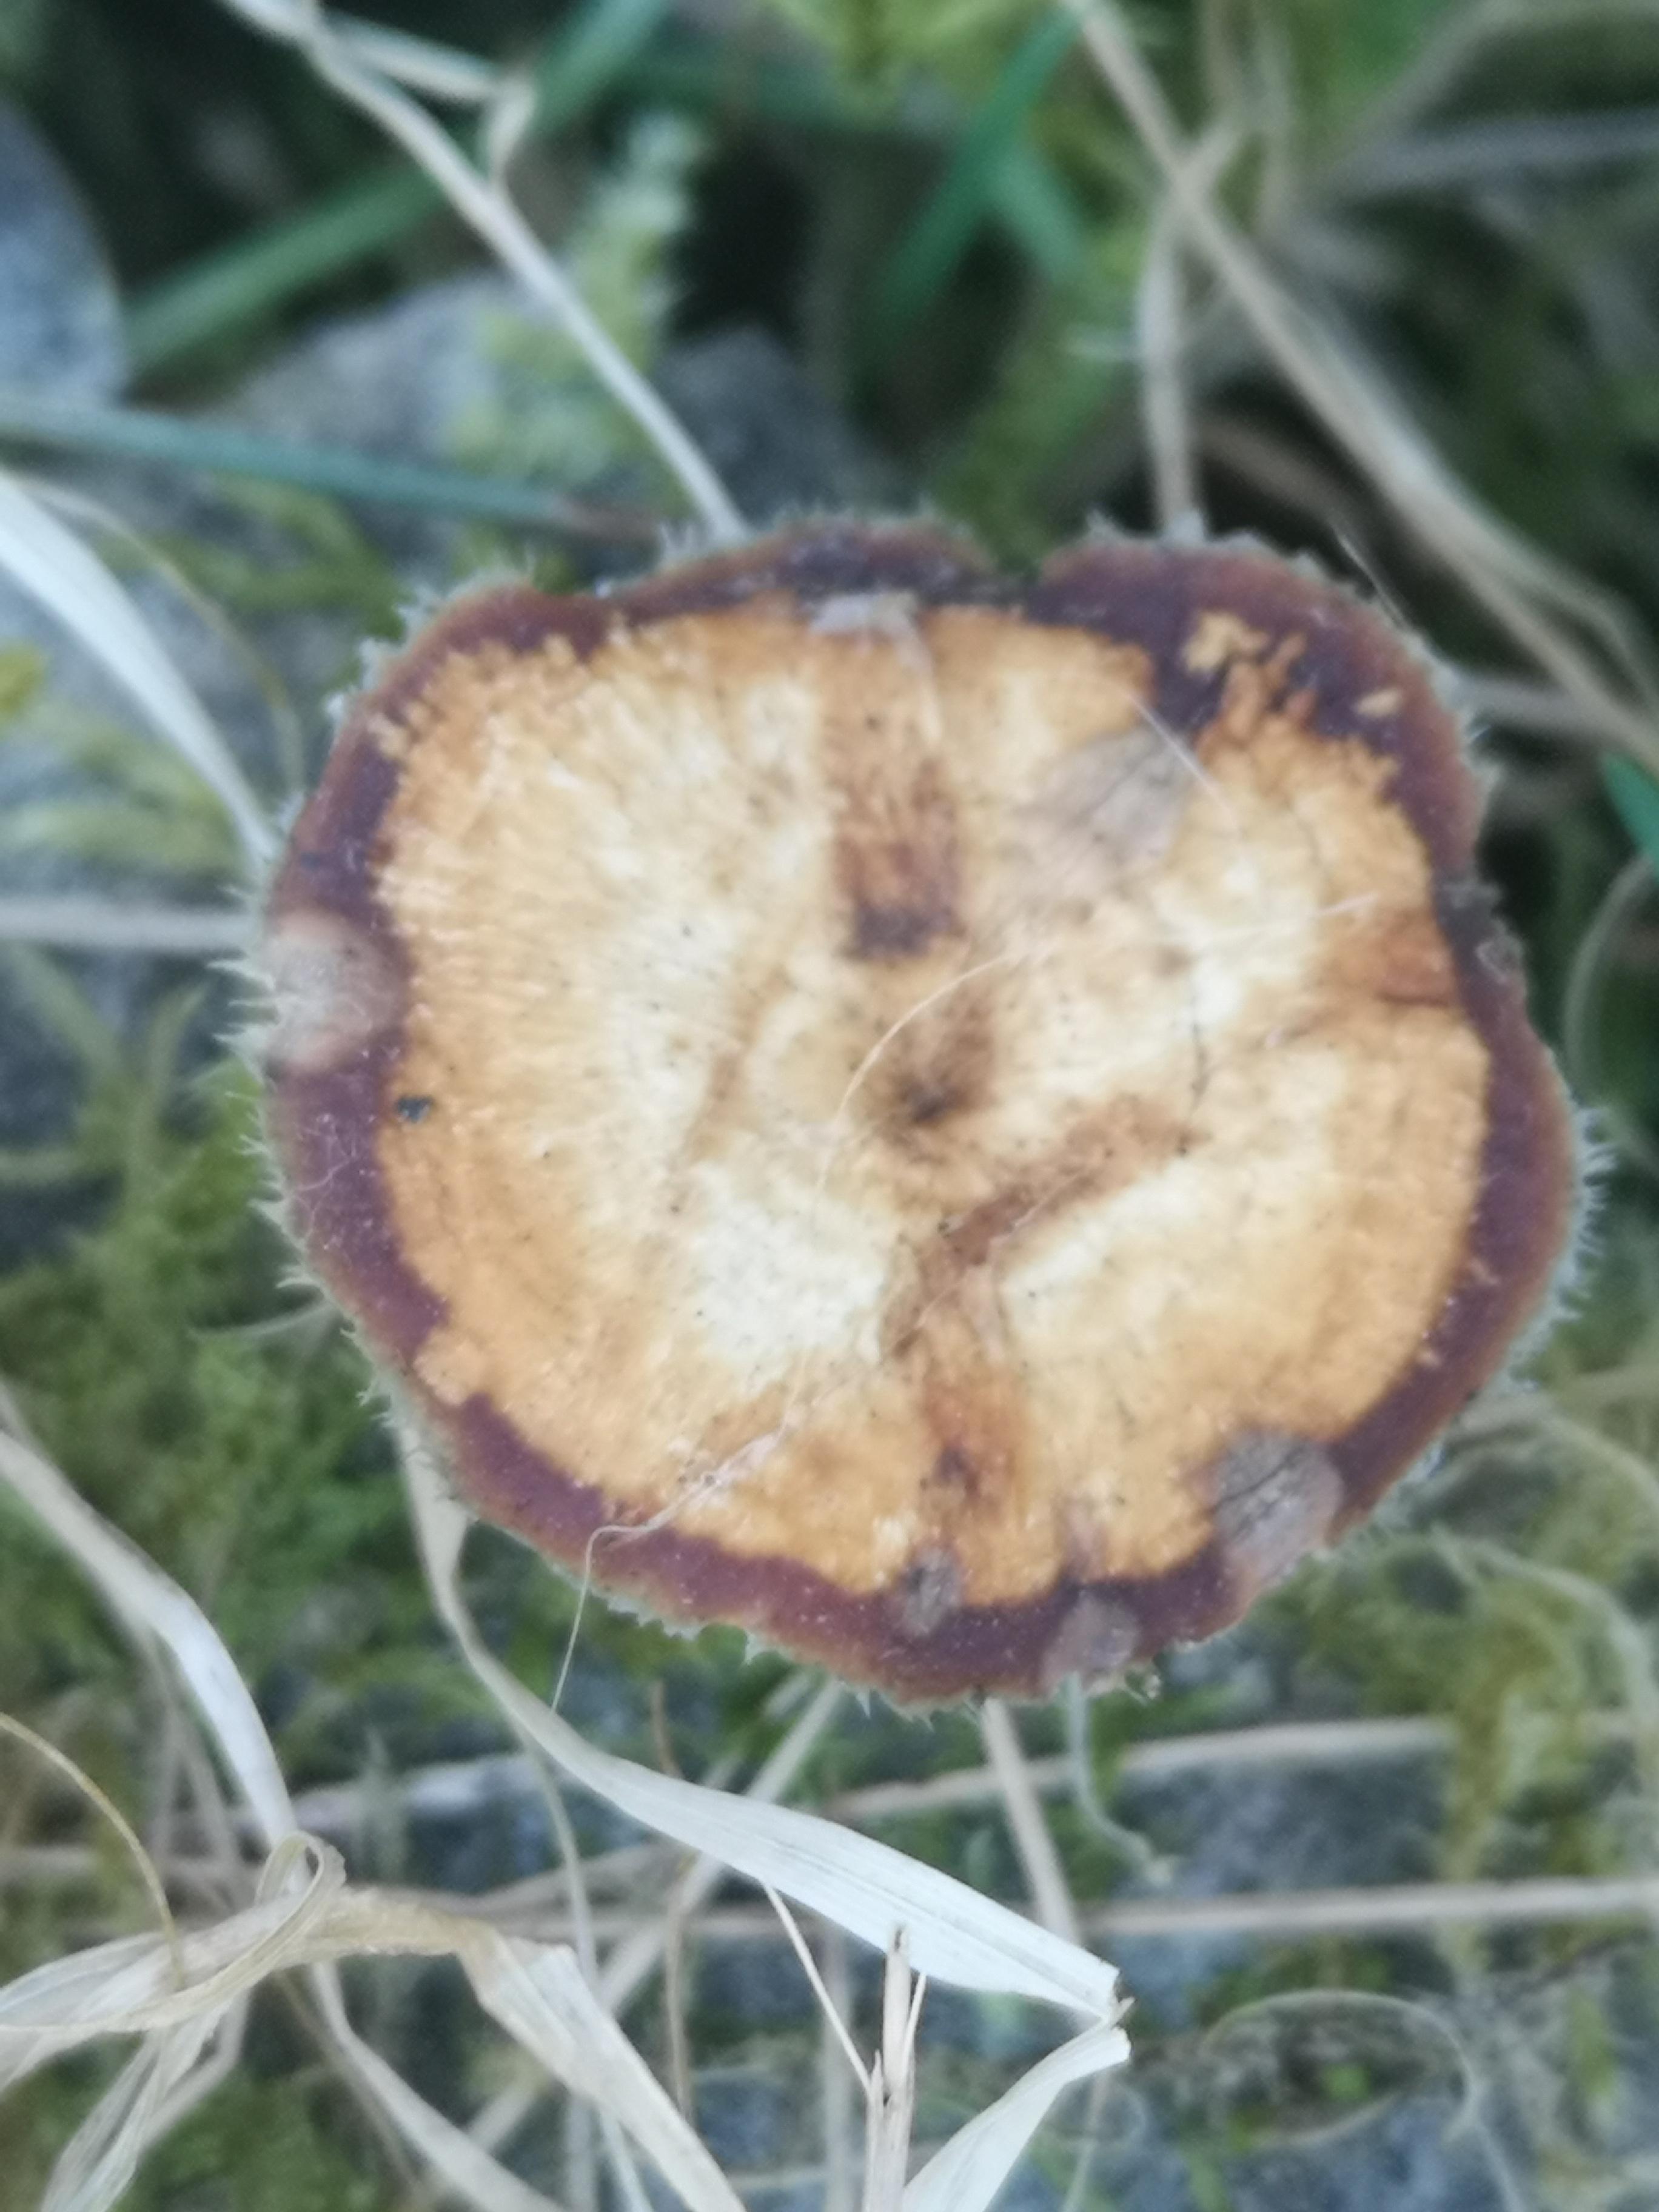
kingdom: Fungi
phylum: Basidiomycota
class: Agaricomycetes
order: Polyporales
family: Polyporaceae
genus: Lentinus
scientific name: Lentinus brumalis
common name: vinter-stilkporesvamp
